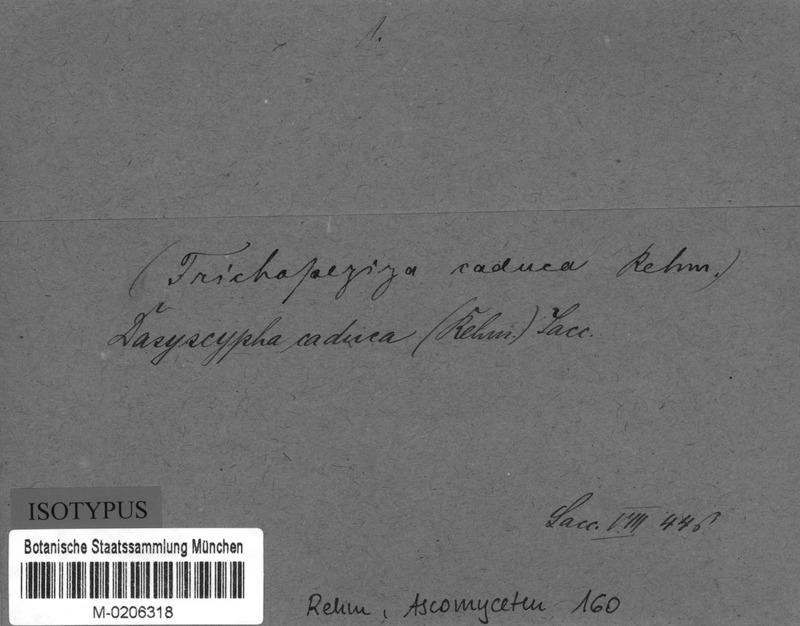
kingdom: Fungi
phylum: Ascomycota
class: Leotiomycetes
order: Helotiales
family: Lachnaceae
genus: Albotricha
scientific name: Albotricha caduca
